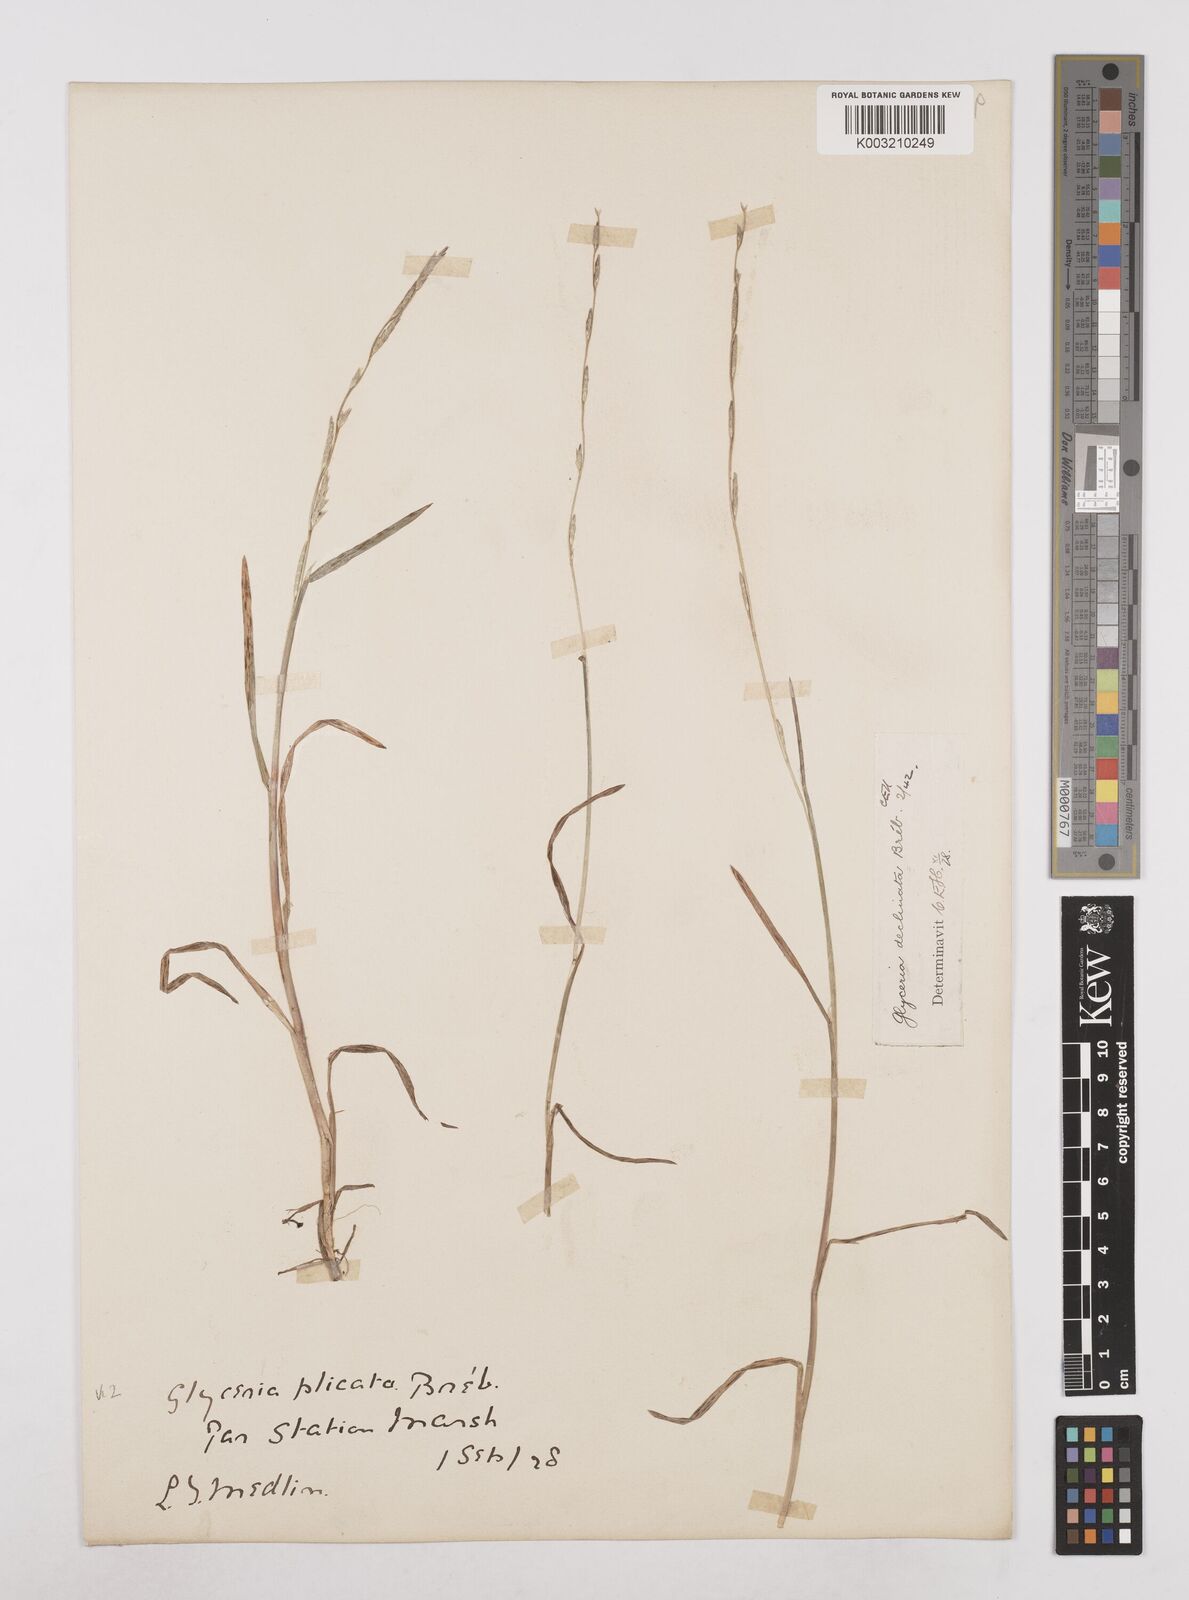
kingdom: Plantae
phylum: Tracheophyta
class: Liliopsida
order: Poales
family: Poaceae
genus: Glyceria
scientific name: Glyceria declinata
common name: Small sweet-grass
